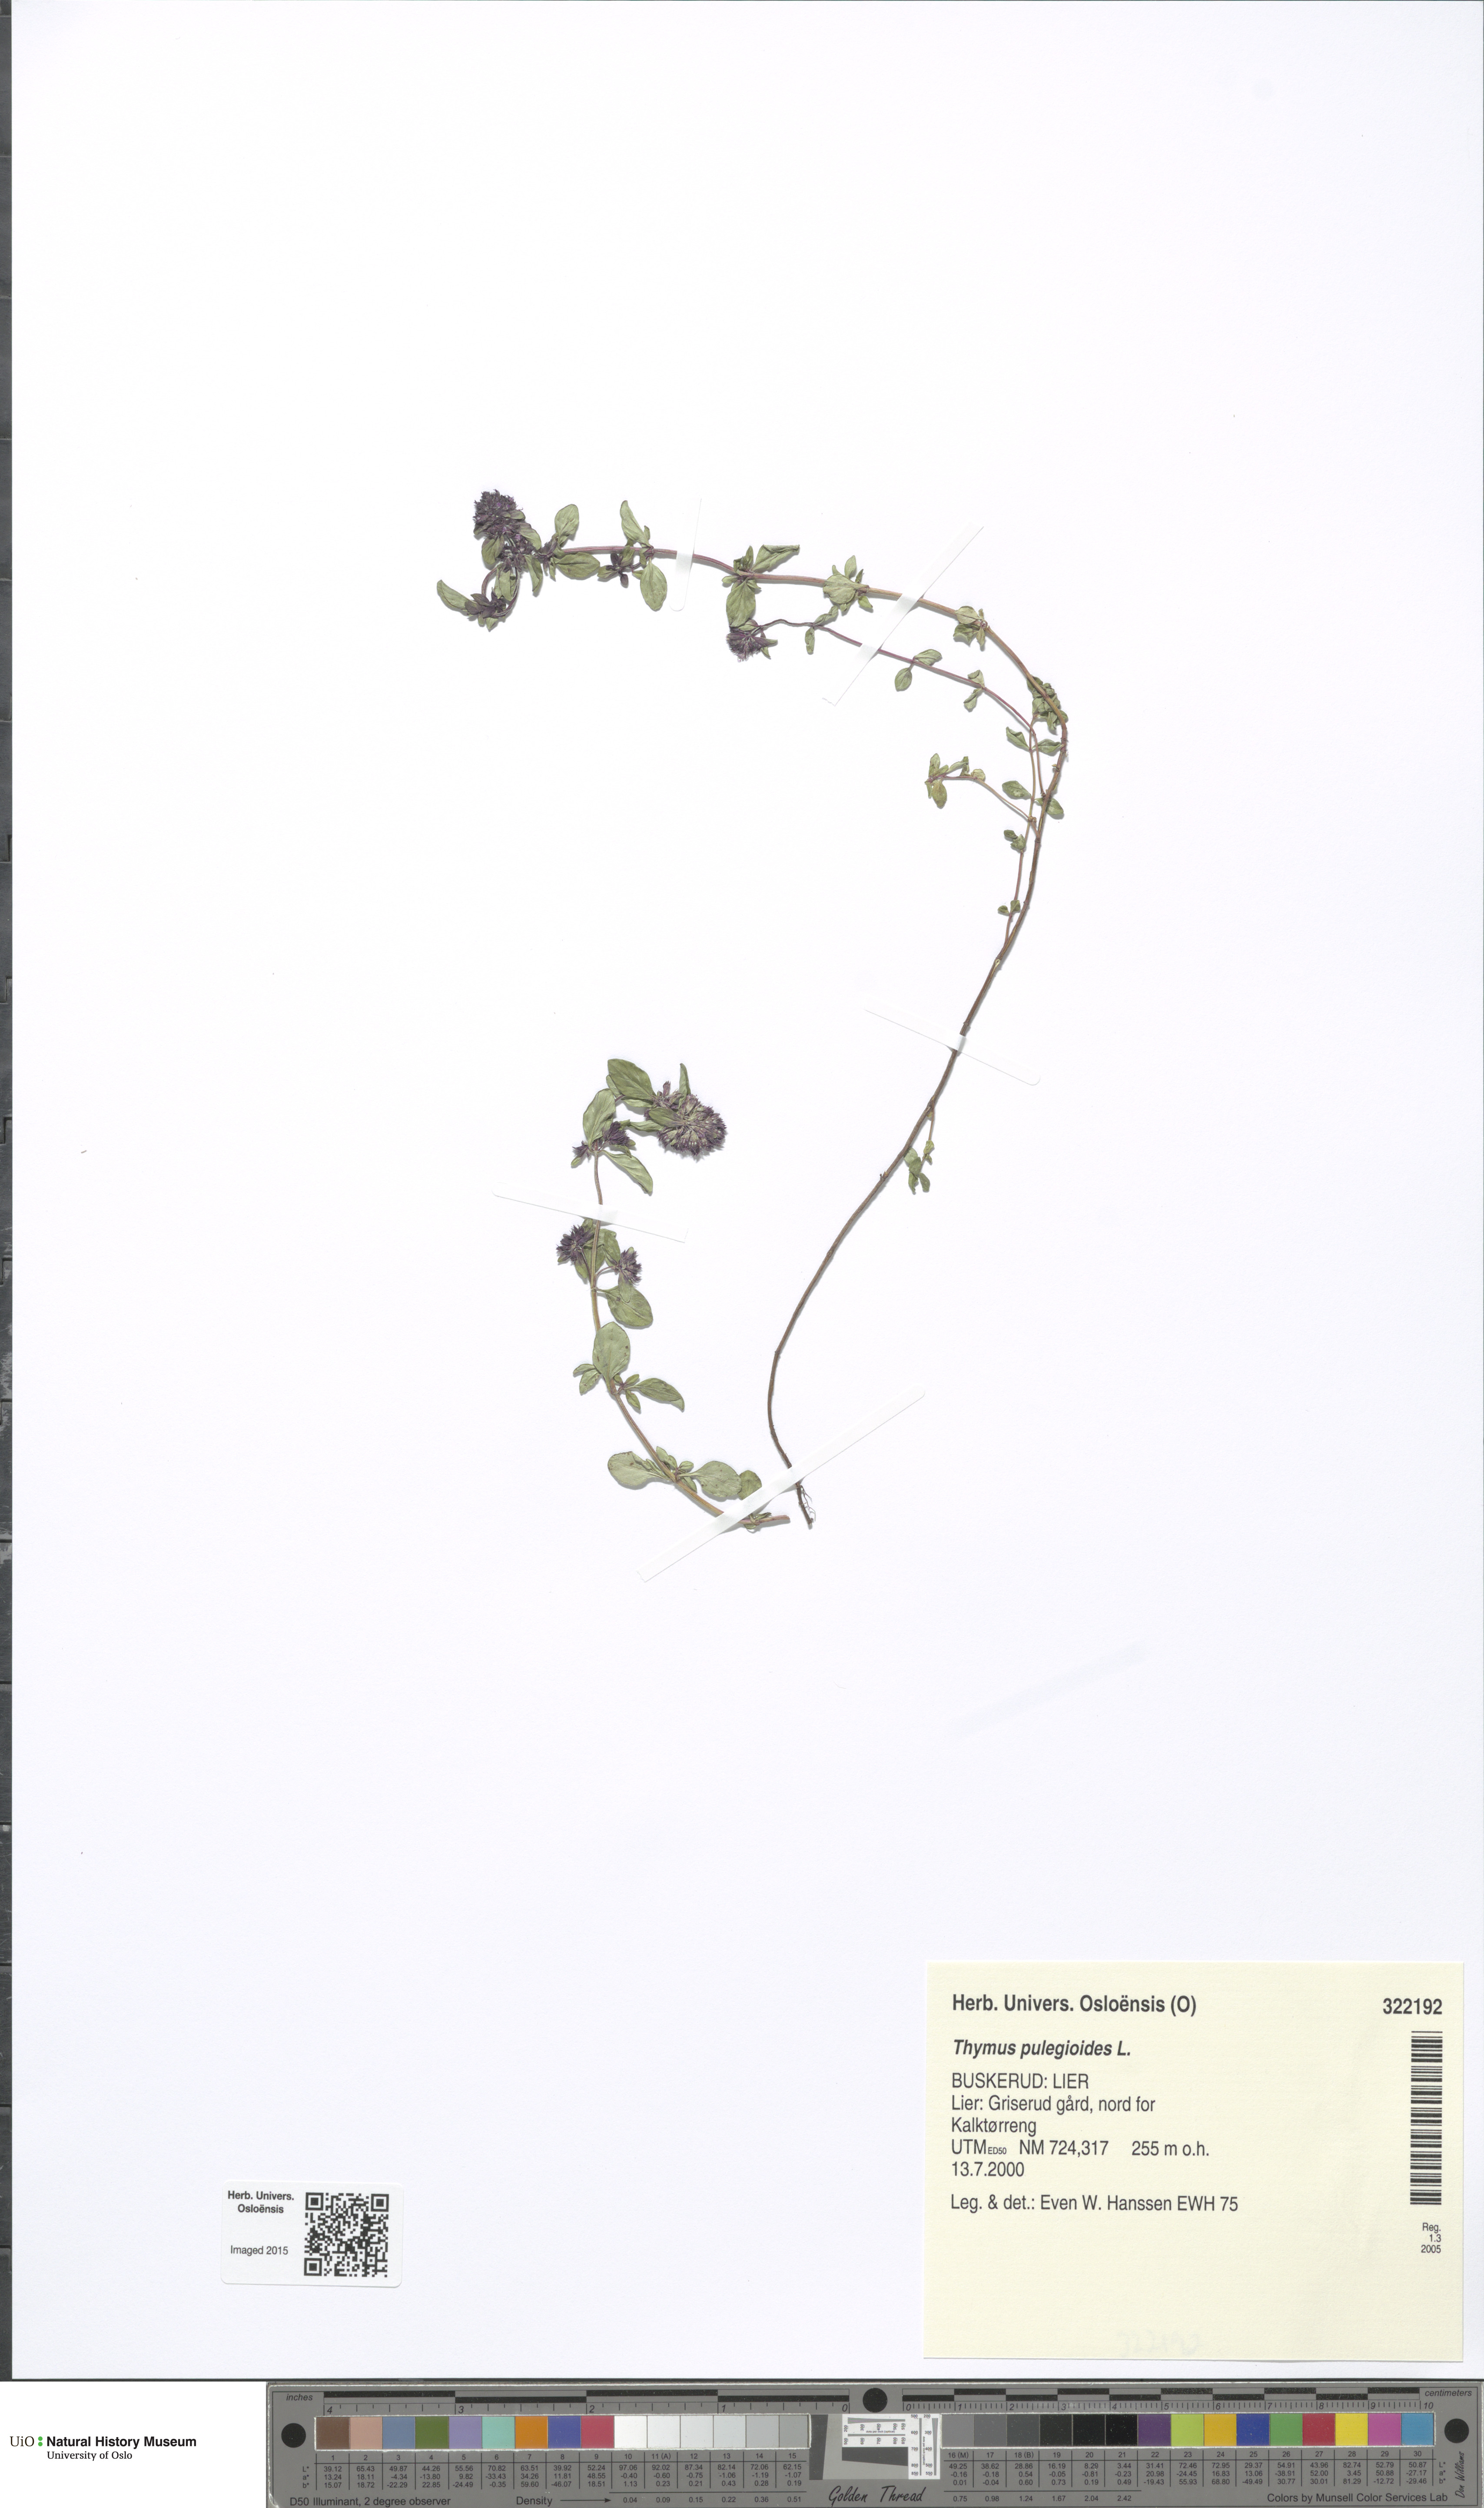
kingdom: Plantae
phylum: Tracheophyta
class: Magnoliopsida
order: Lamiales
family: Lamiaceae
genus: Thymus
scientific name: Thymus pulegioides
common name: Large thyme
